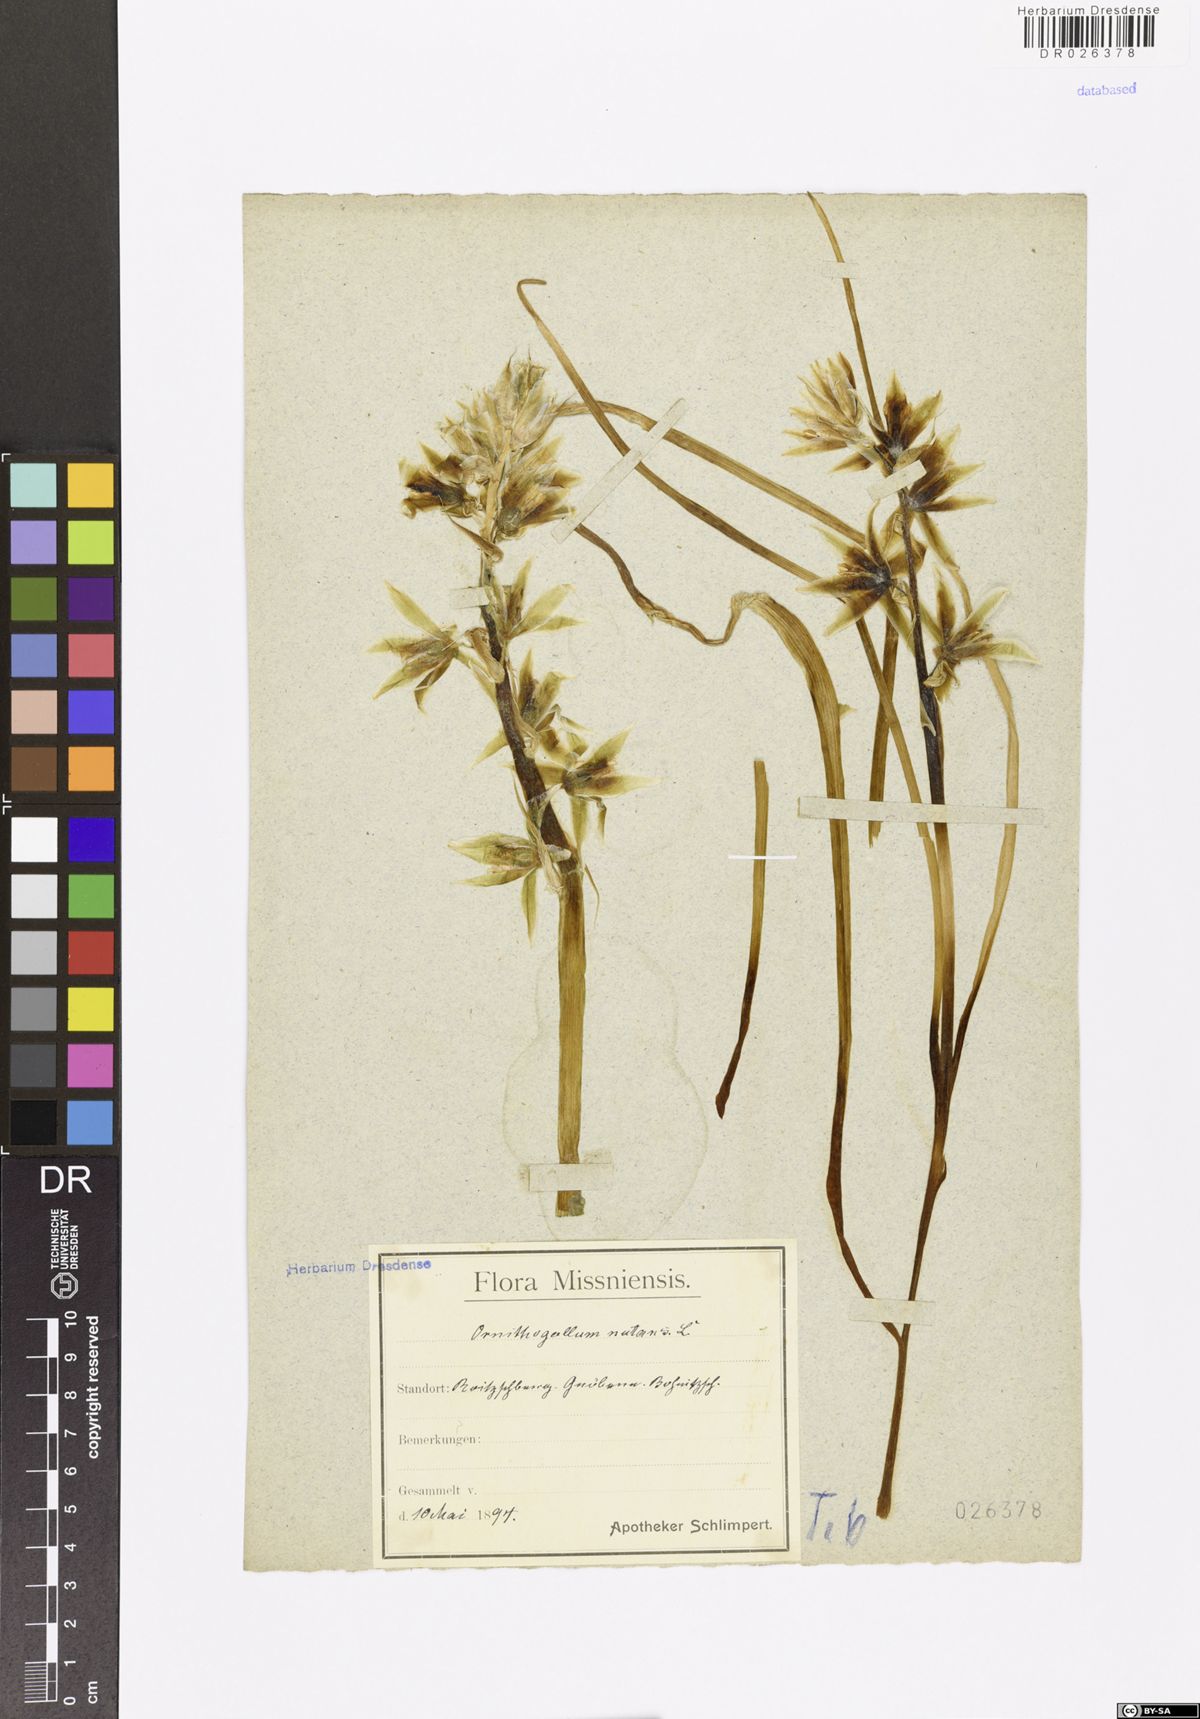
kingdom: Plantae
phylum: Tracheophyta
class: Liliopsida
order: Asparagales
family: Asparagaceae
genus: Ornithogalum
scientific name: Ornithogalum nutans
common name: Drooping star-of-bethlehem
